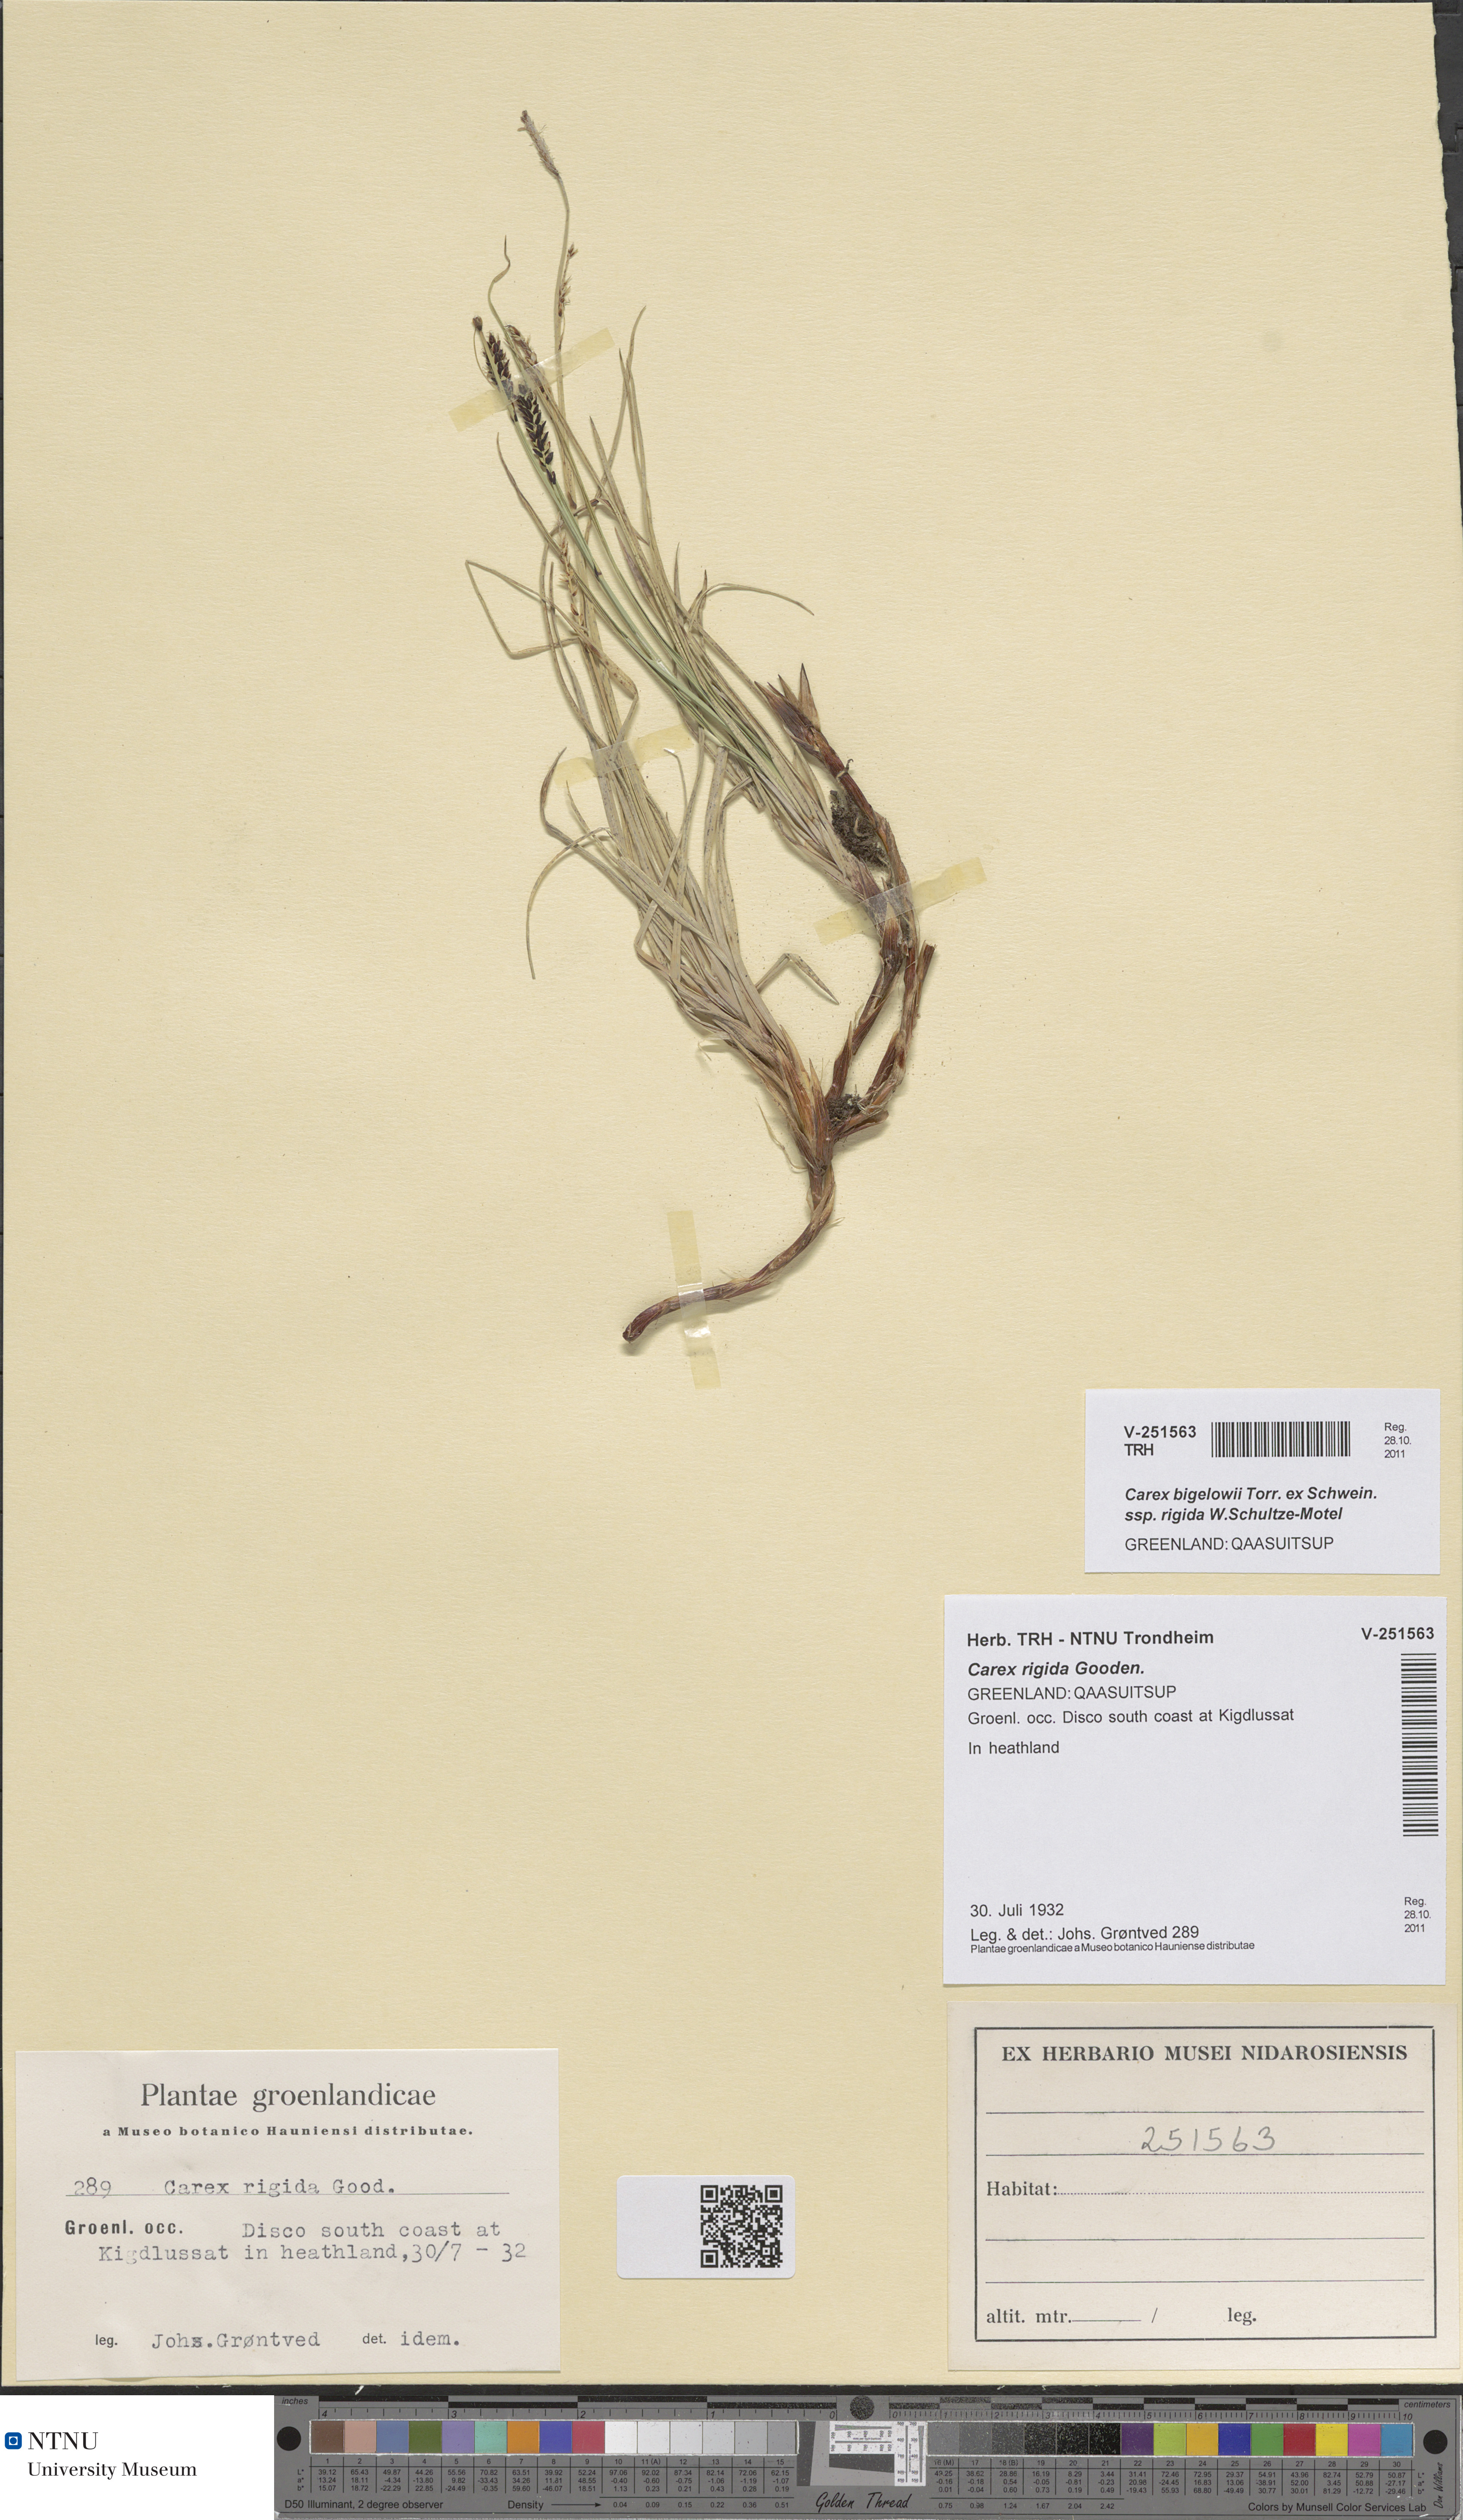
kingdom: Plantae
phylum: Tracheophyta
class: Liliopsida
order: Poales
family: Cyperaceae
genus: Carex
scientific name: Carex dacica
